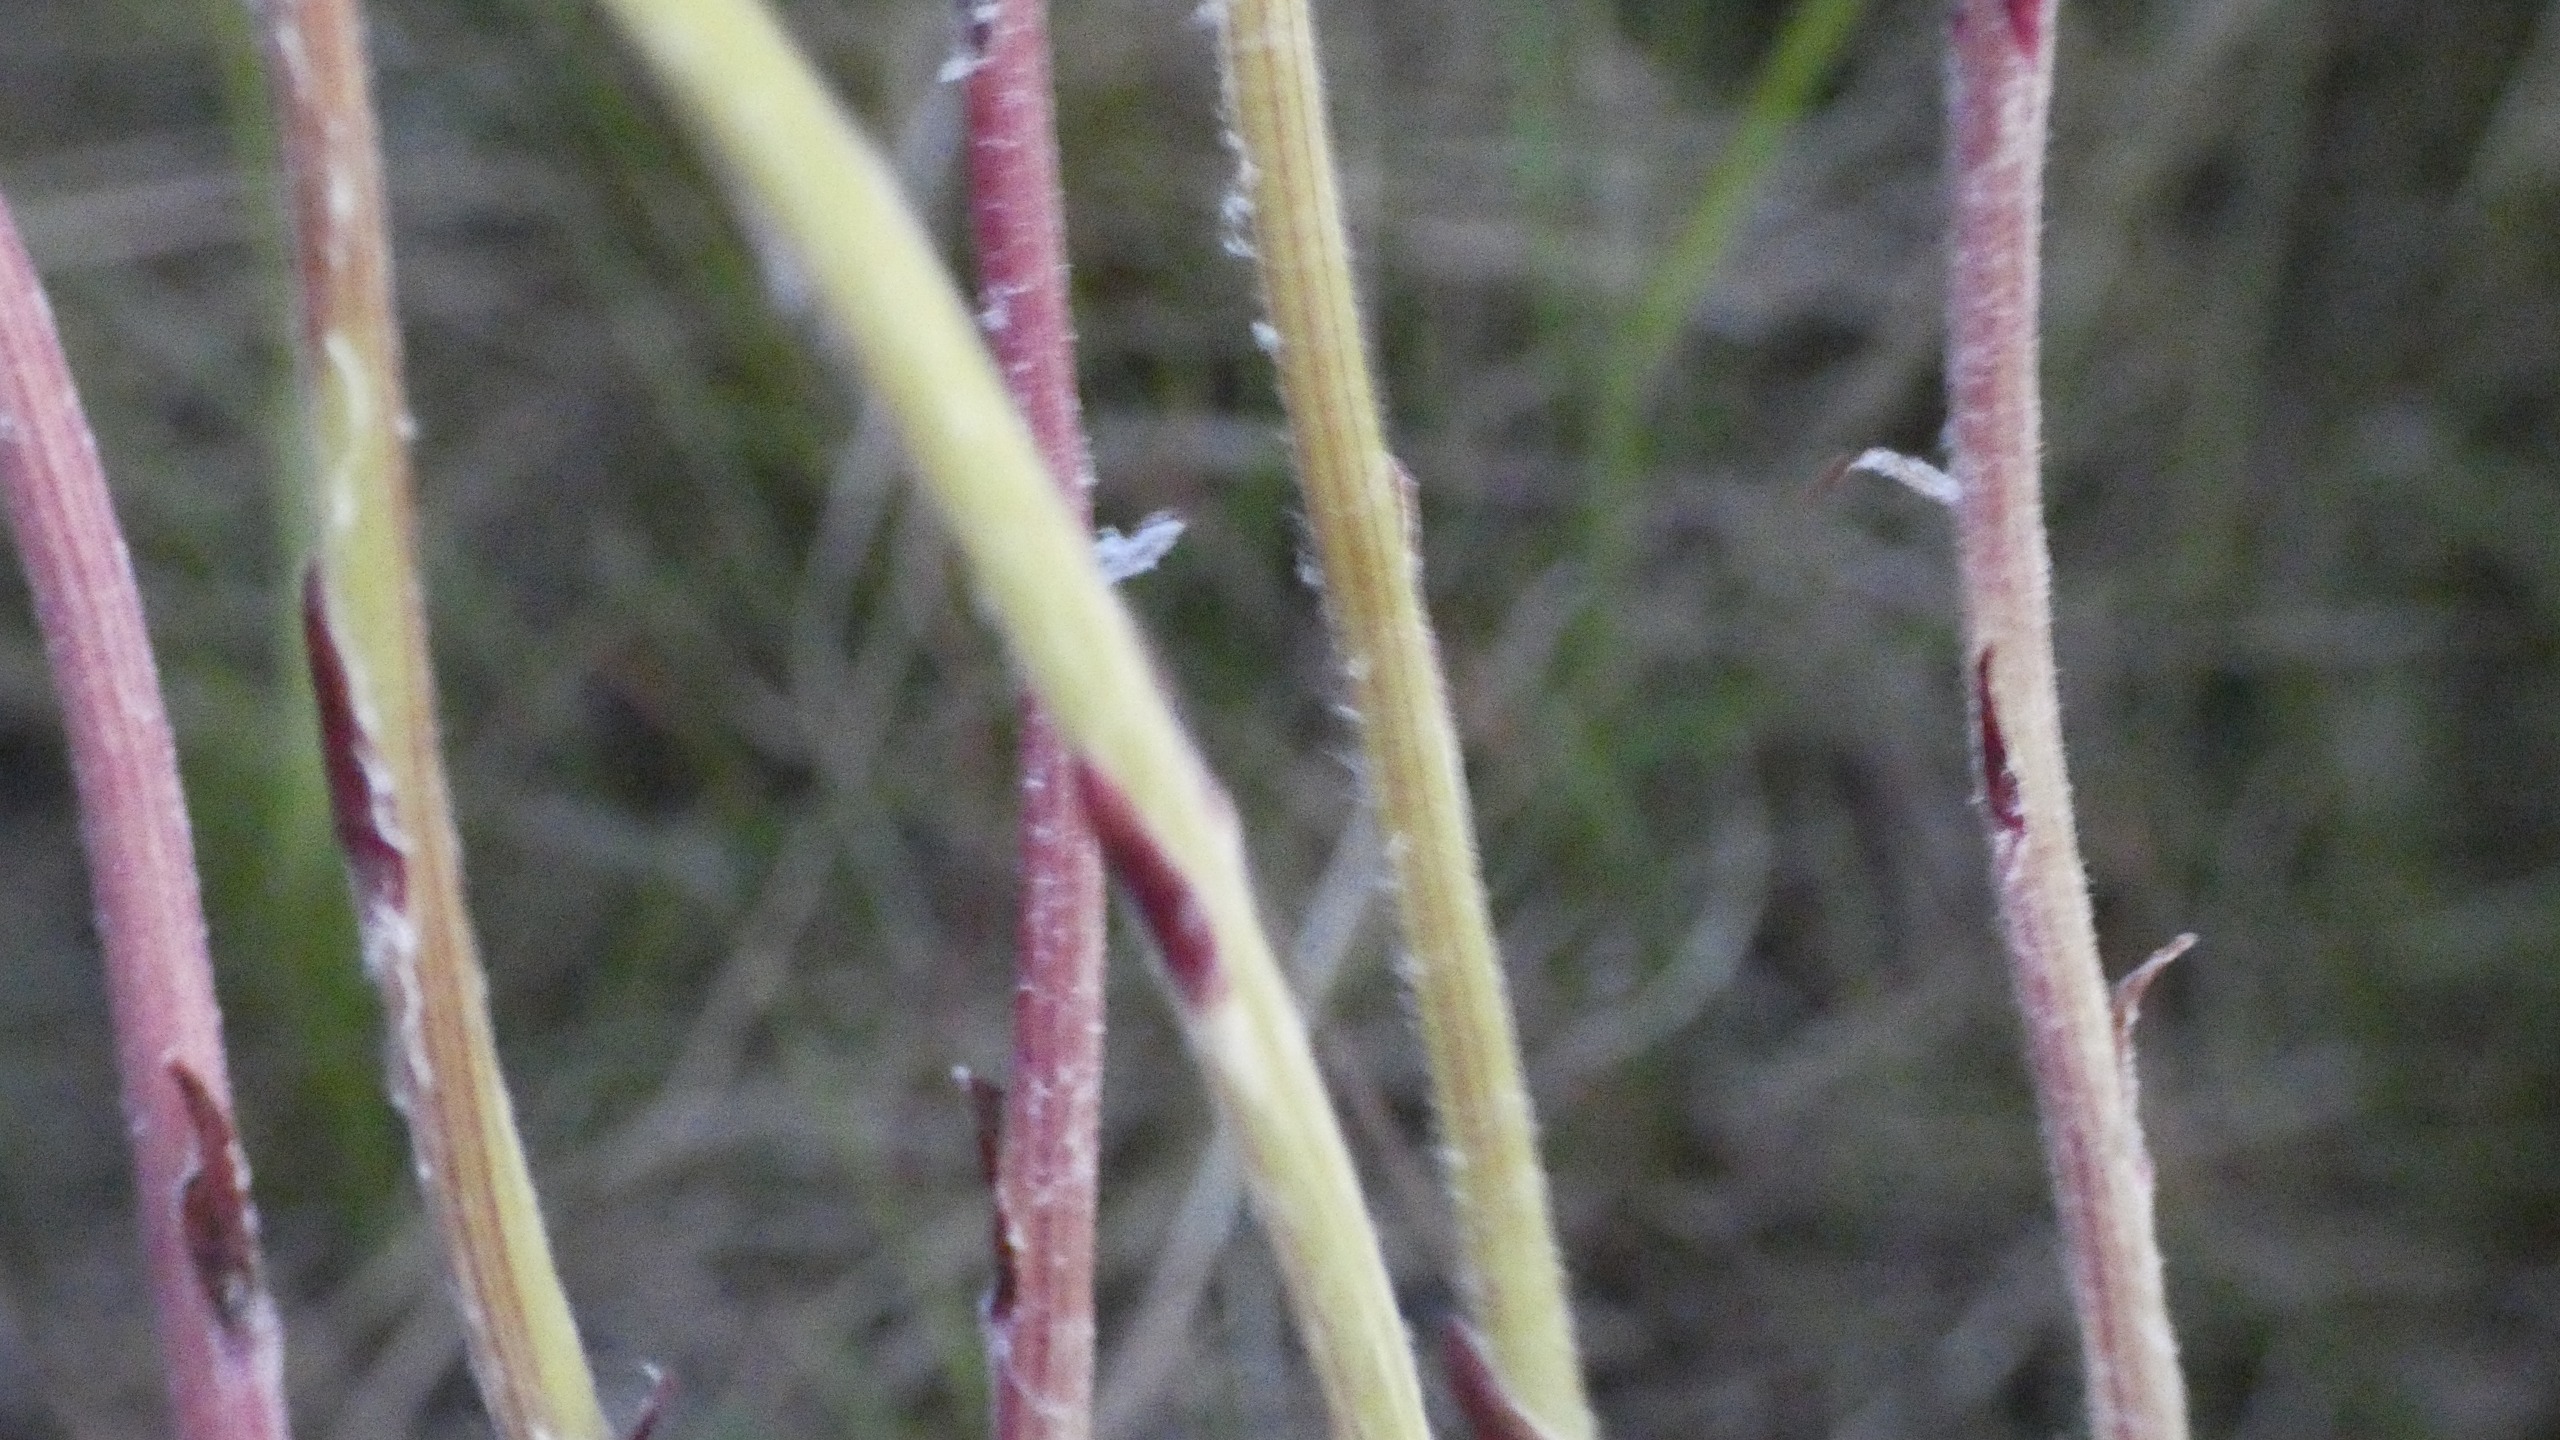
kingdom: Plantae
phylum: Tracheophyta
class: Magnoliopsida
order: Asterales
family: Asteraceae
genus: Tussilago
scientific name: Tussilago farfara
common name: Følfod
